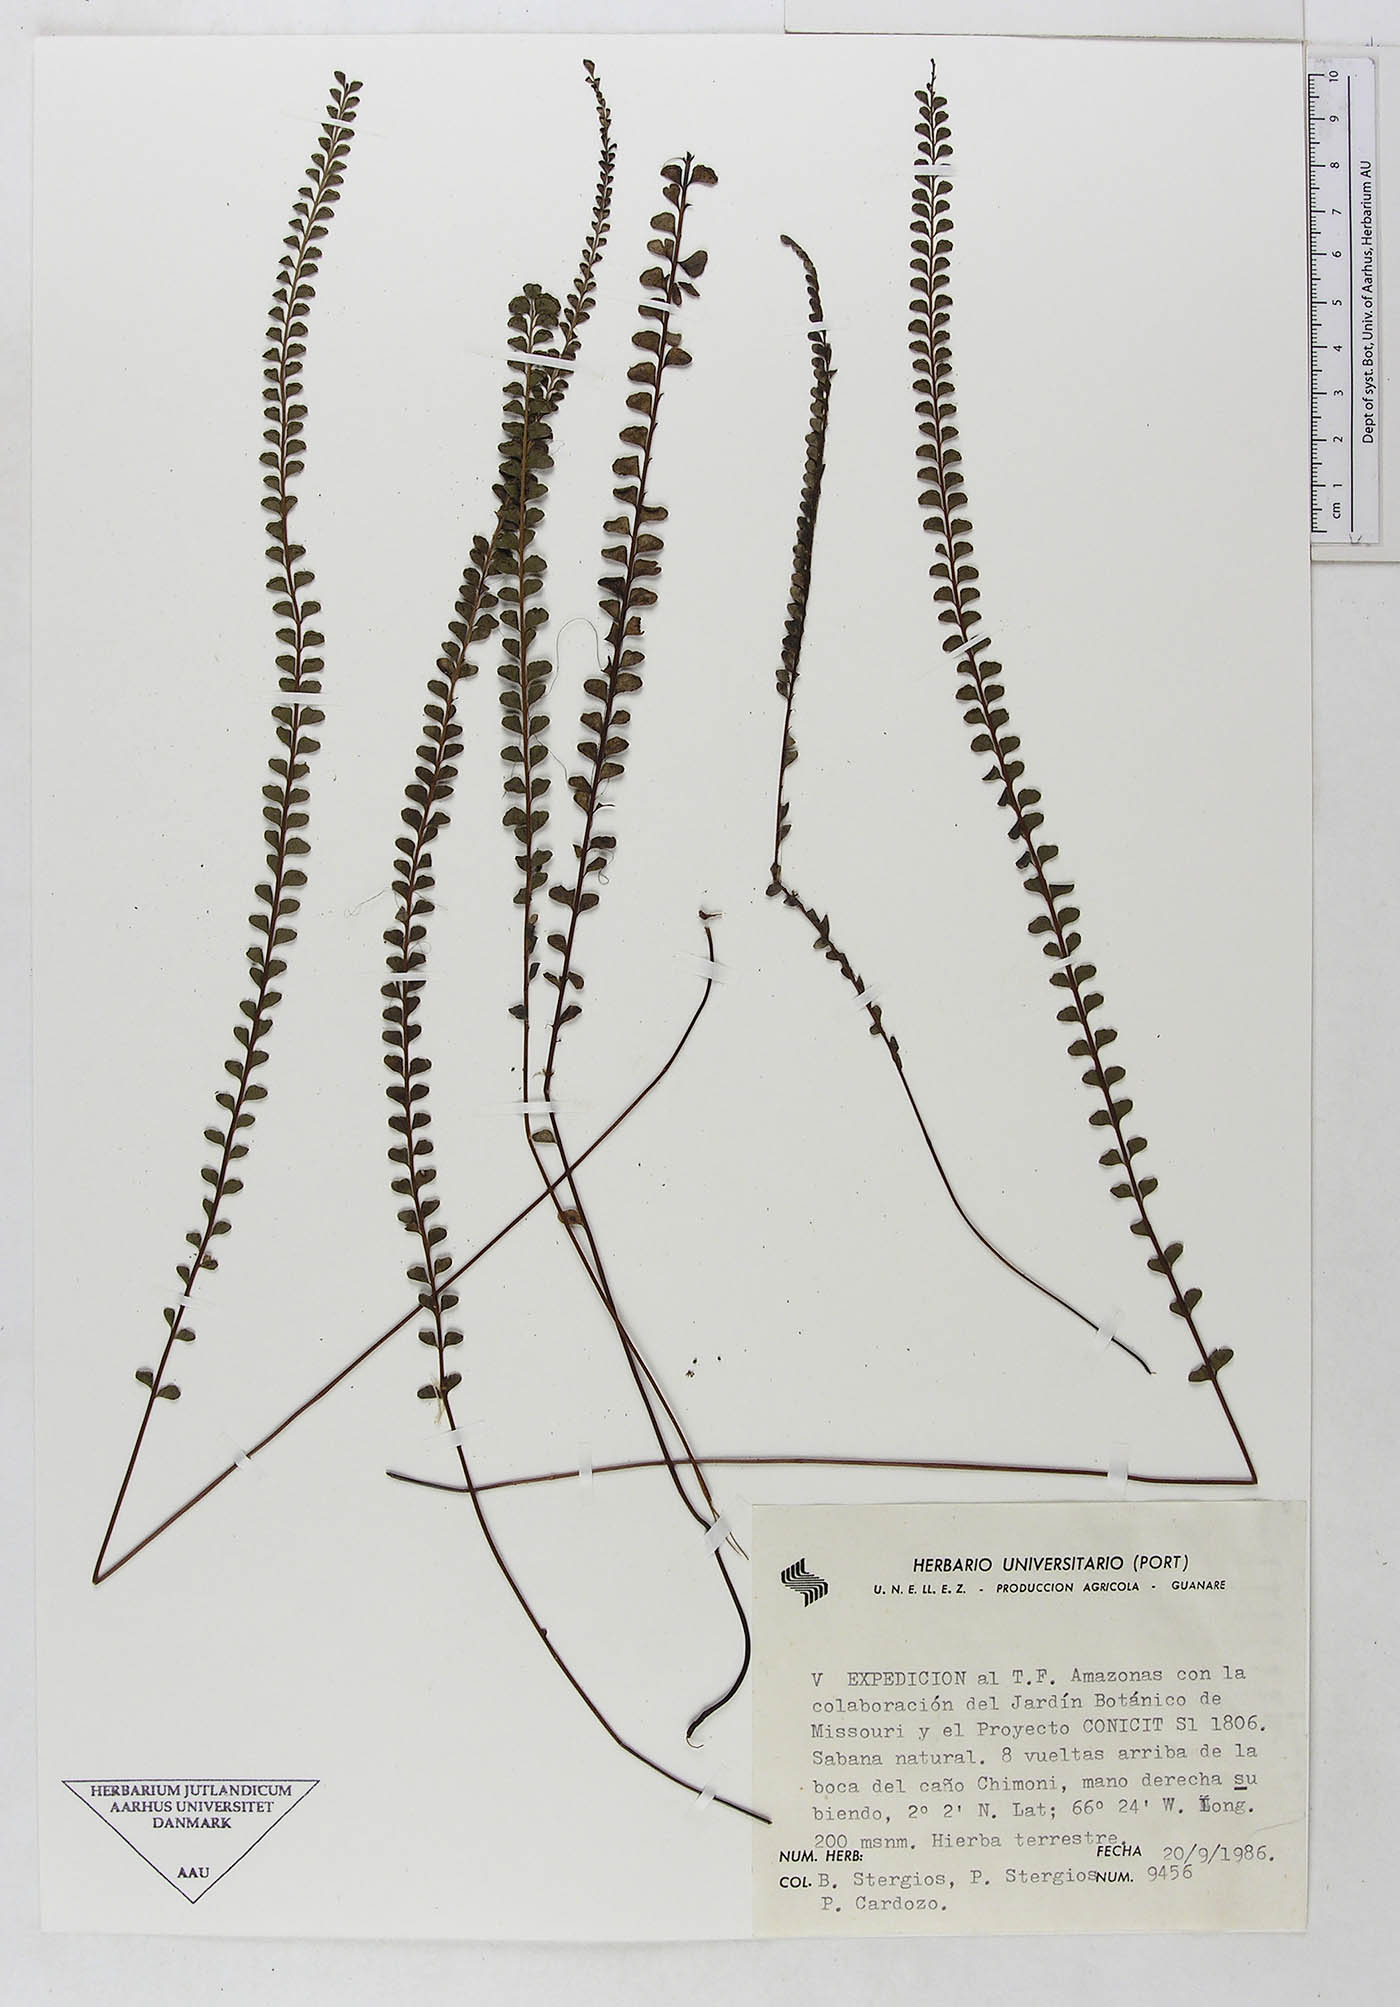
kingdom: Plantae
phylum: Tracheophyta
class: Polypodiopsida
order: Polypodiales
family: Dennstaedtiaceae
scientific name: Dennstaedtiaceae
